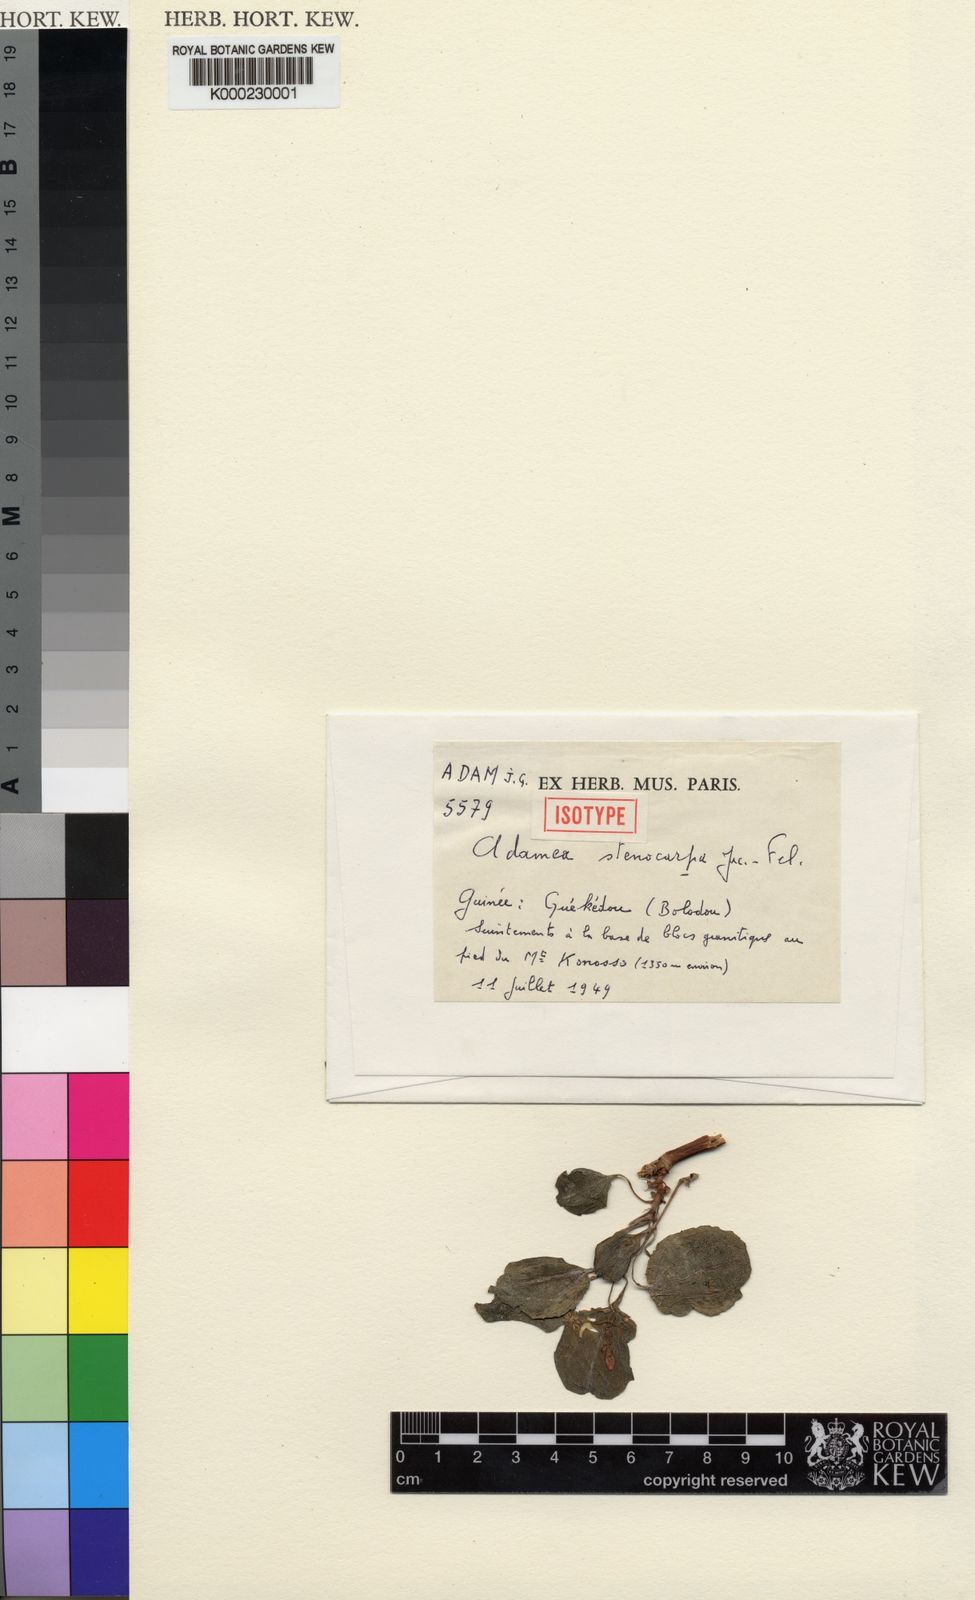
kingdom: Plantae
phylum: Tracheophyta
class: Magnoliopsida
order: Myrtales
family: Melastomataceae
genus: Feliciadamia
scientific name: Feliciadamia
